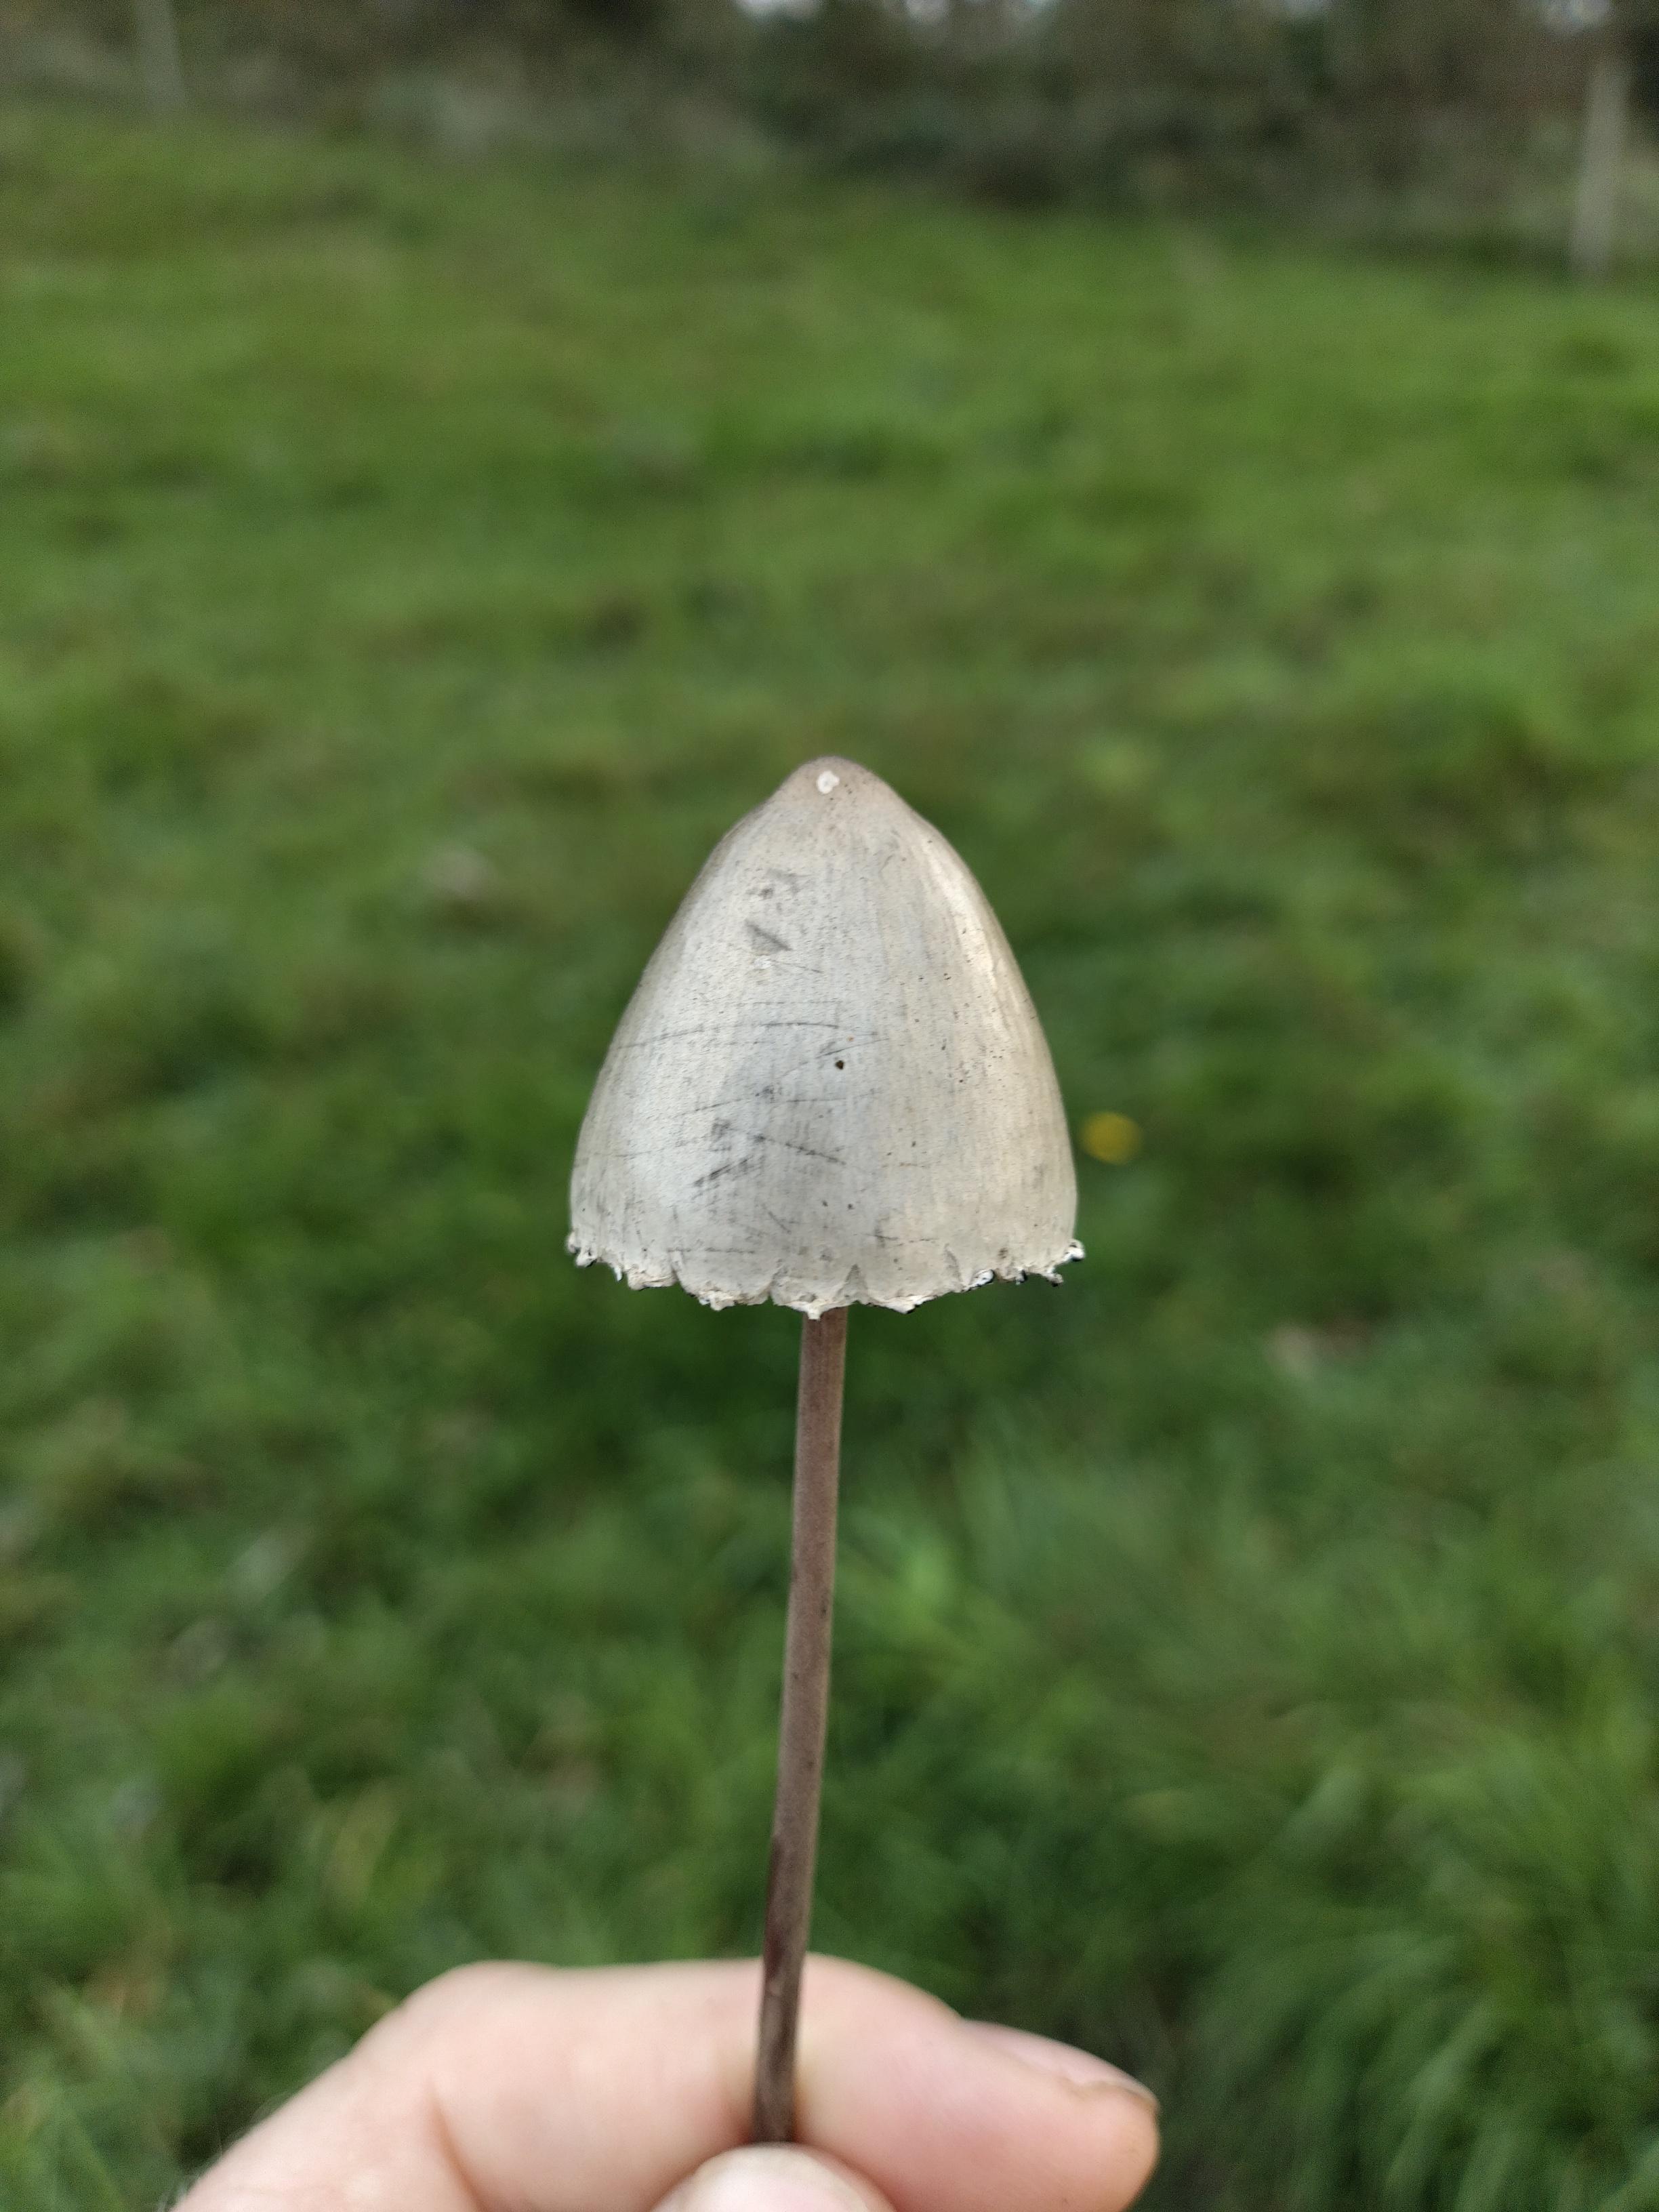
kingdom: Fungi
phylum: Basidiomycota
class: Agaricomycetes
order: Agaricales
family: Bolbitiaceae
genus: Panaeolus
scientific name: Panaeolus papilionaceus
